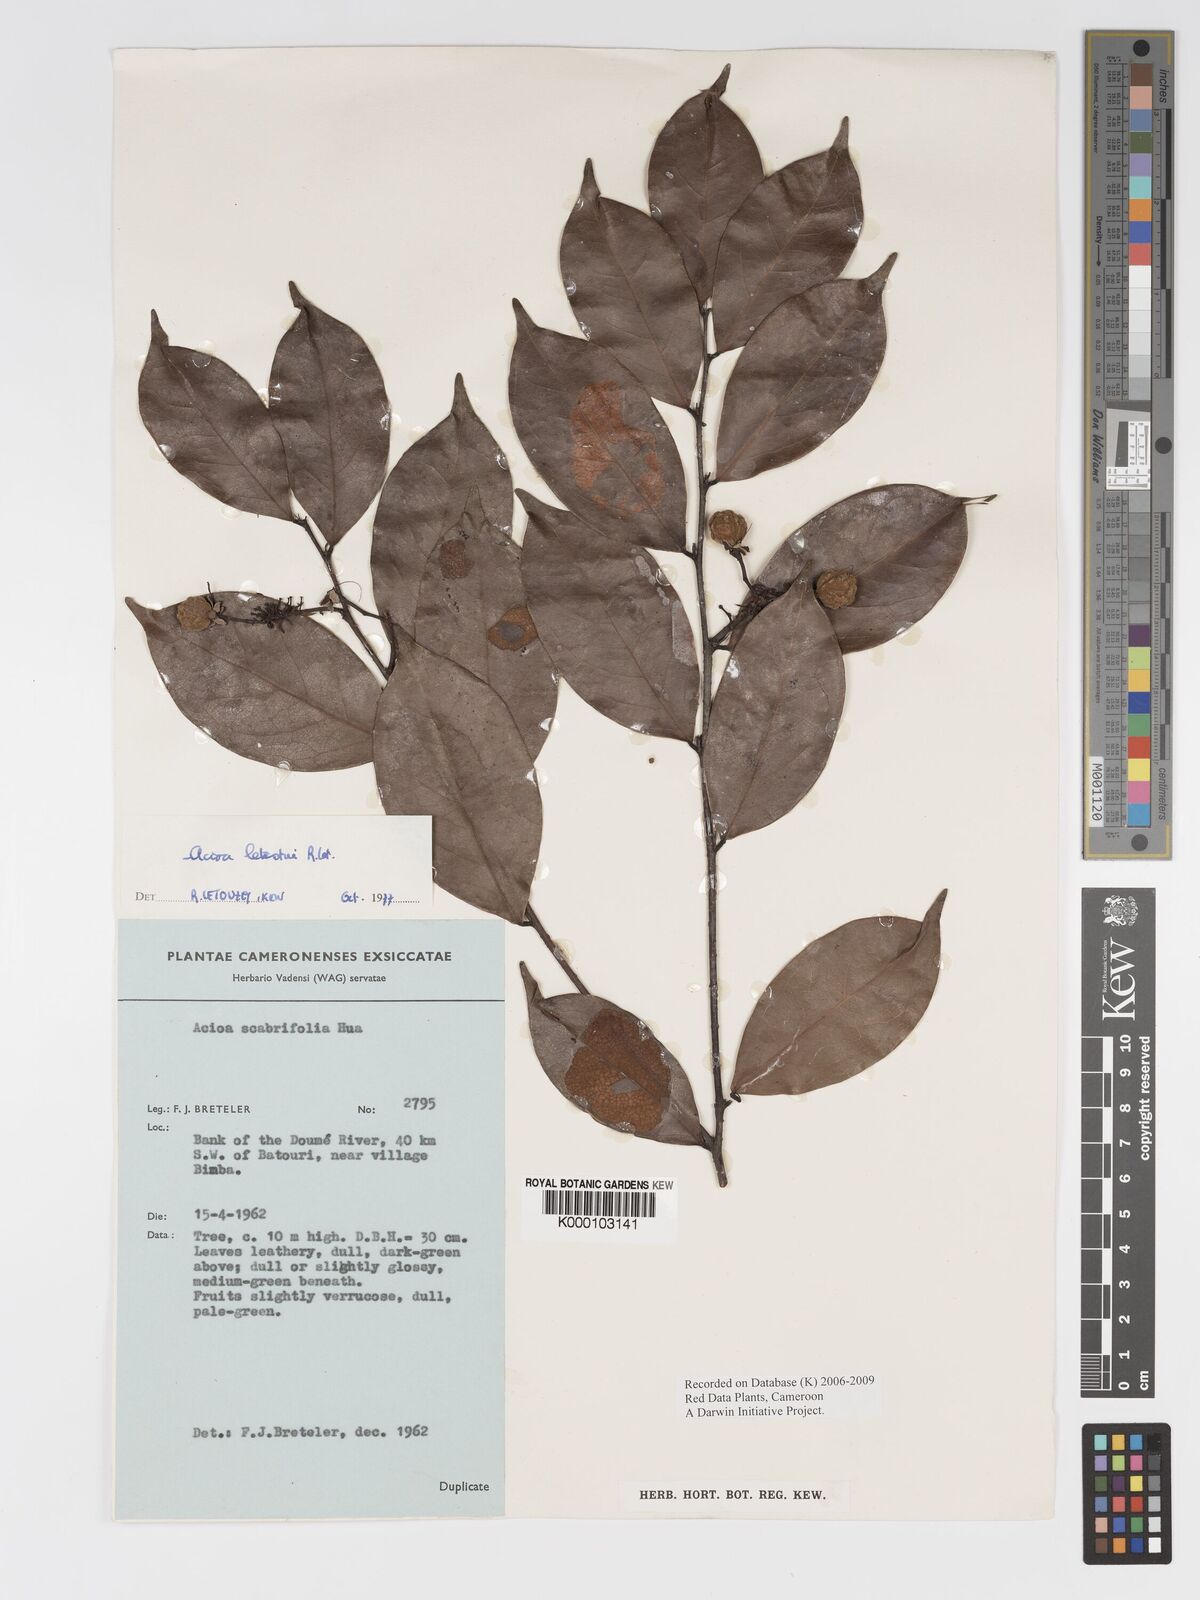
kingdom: Plantae
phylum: Tracheophyta
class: Magnoliopsida
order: Malpighiales
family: Chrysobalanaceae
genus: Dactyladenia
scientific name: Dactyladenia letestui
